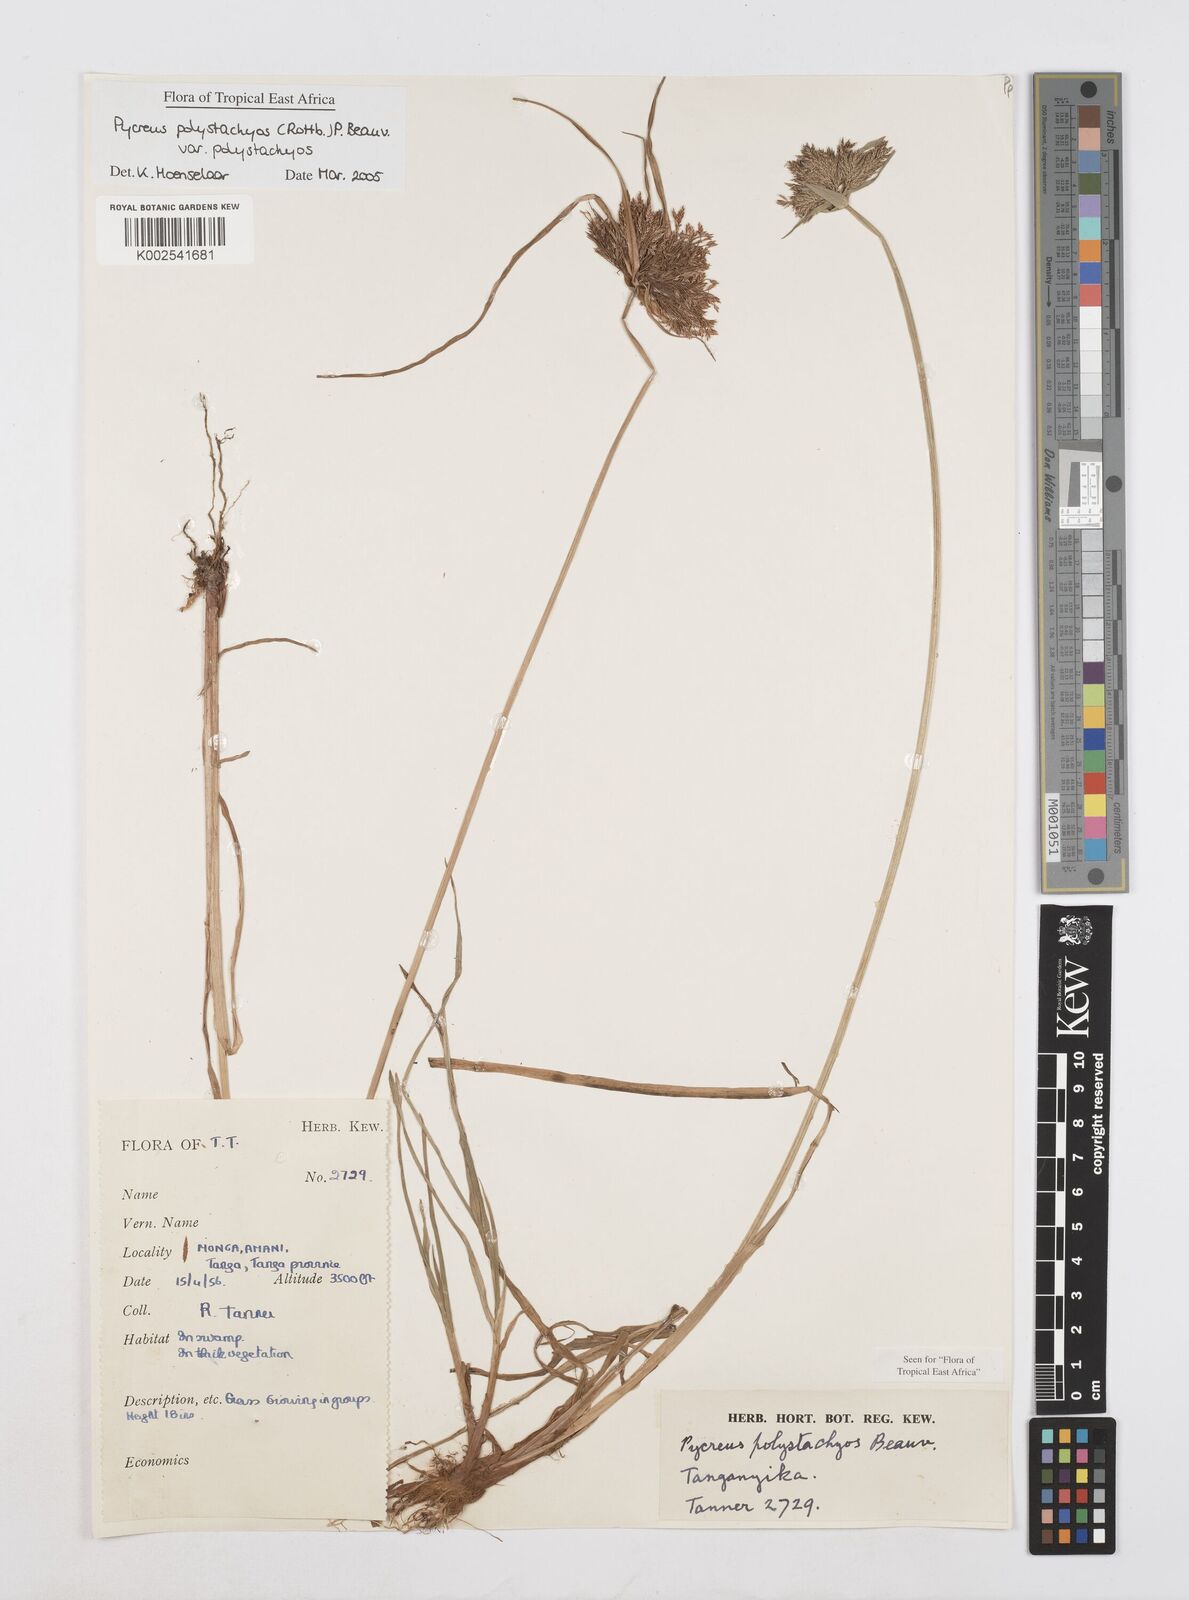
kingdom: Plantae
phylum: Tracheophyta
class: Liliopsida
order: Poales
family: Cyperaceae
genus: Cyperus
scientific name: Cyperus polystachyos
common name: Bunchy flat sedge
